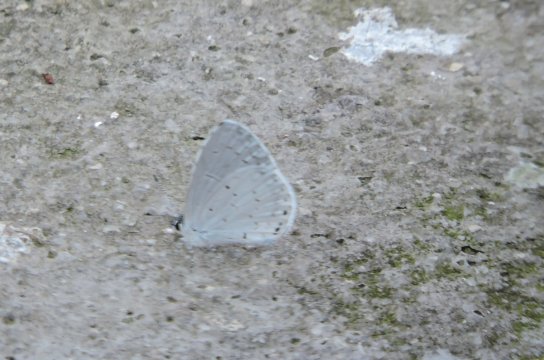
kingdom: Animalia
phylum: Arthropoda
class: Insecta
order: Lepidoptera
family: Lycaenidae
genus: Cyaniris
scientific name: Cyaniris neglecta
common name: Summer Azure
